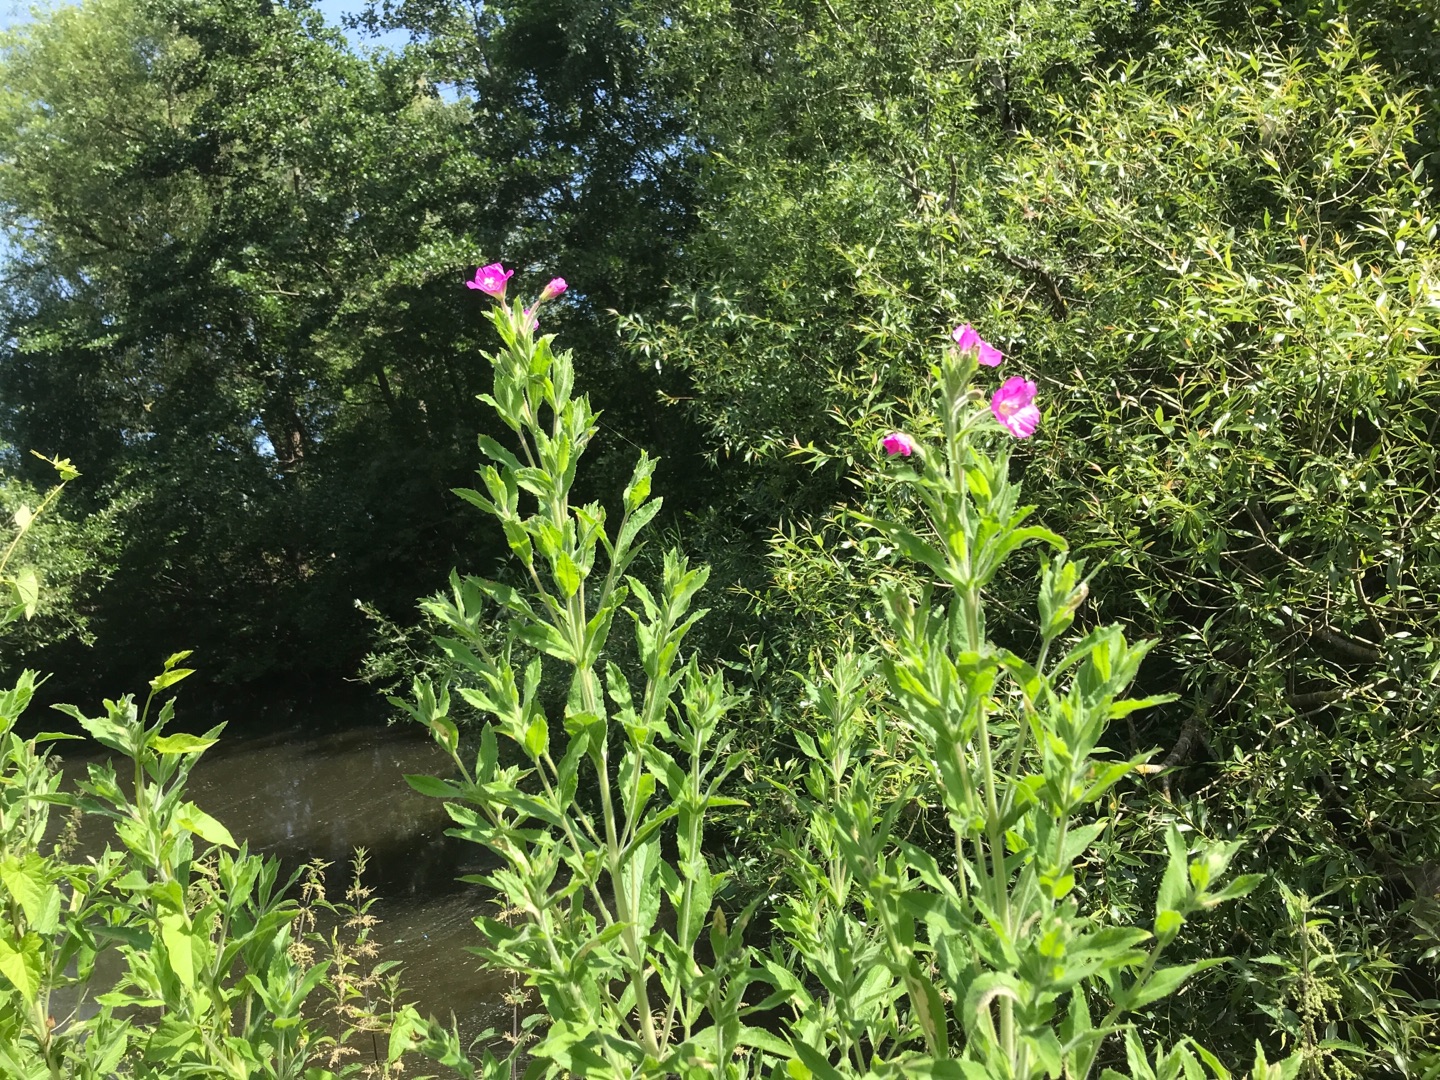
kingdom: Plantae
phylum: Tracheophyta
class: Magnoliopsida
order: Myrtales
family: Onagraceae
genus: Epilobium
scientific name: Epilobium hirsutum
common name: Lådden dueurt
